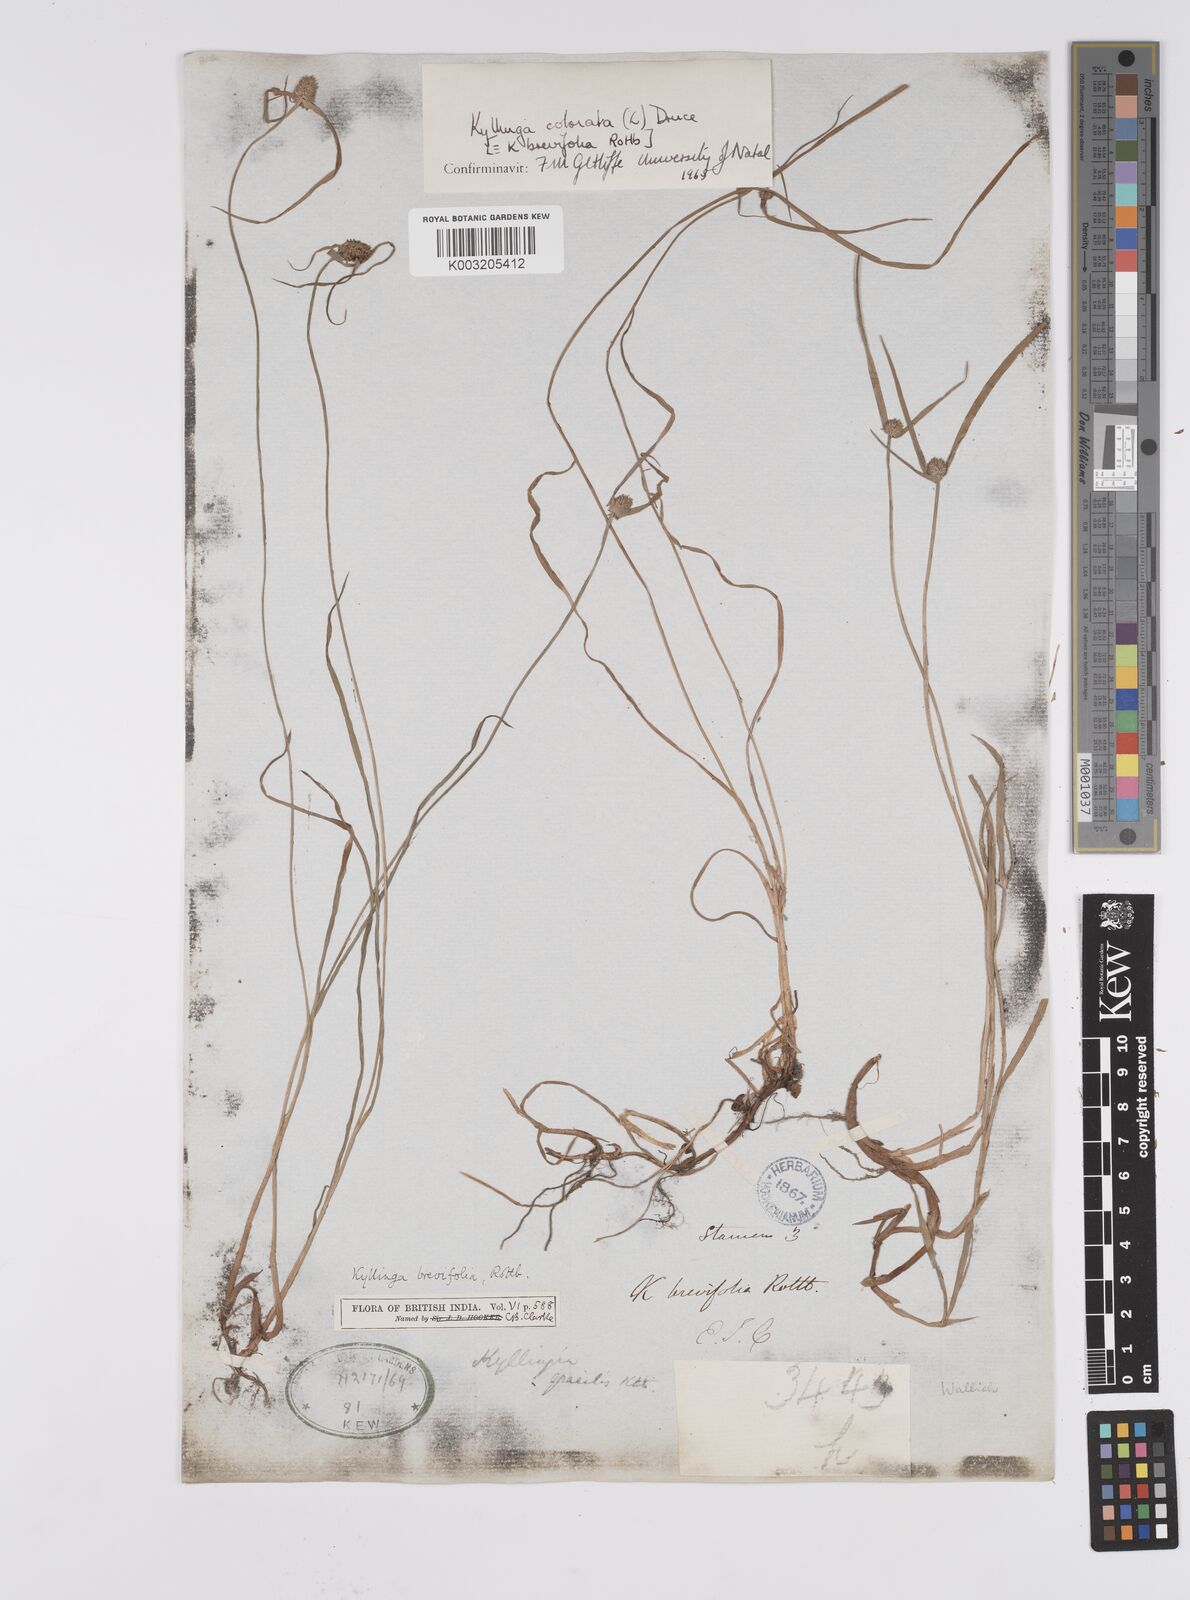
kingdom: Plantae
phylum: Tracheophyta
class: Liliopsida
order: Poales
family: Cyperaceae
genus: Cyperus
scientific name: Cyperus brevifolius
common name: Globe kyllinga
